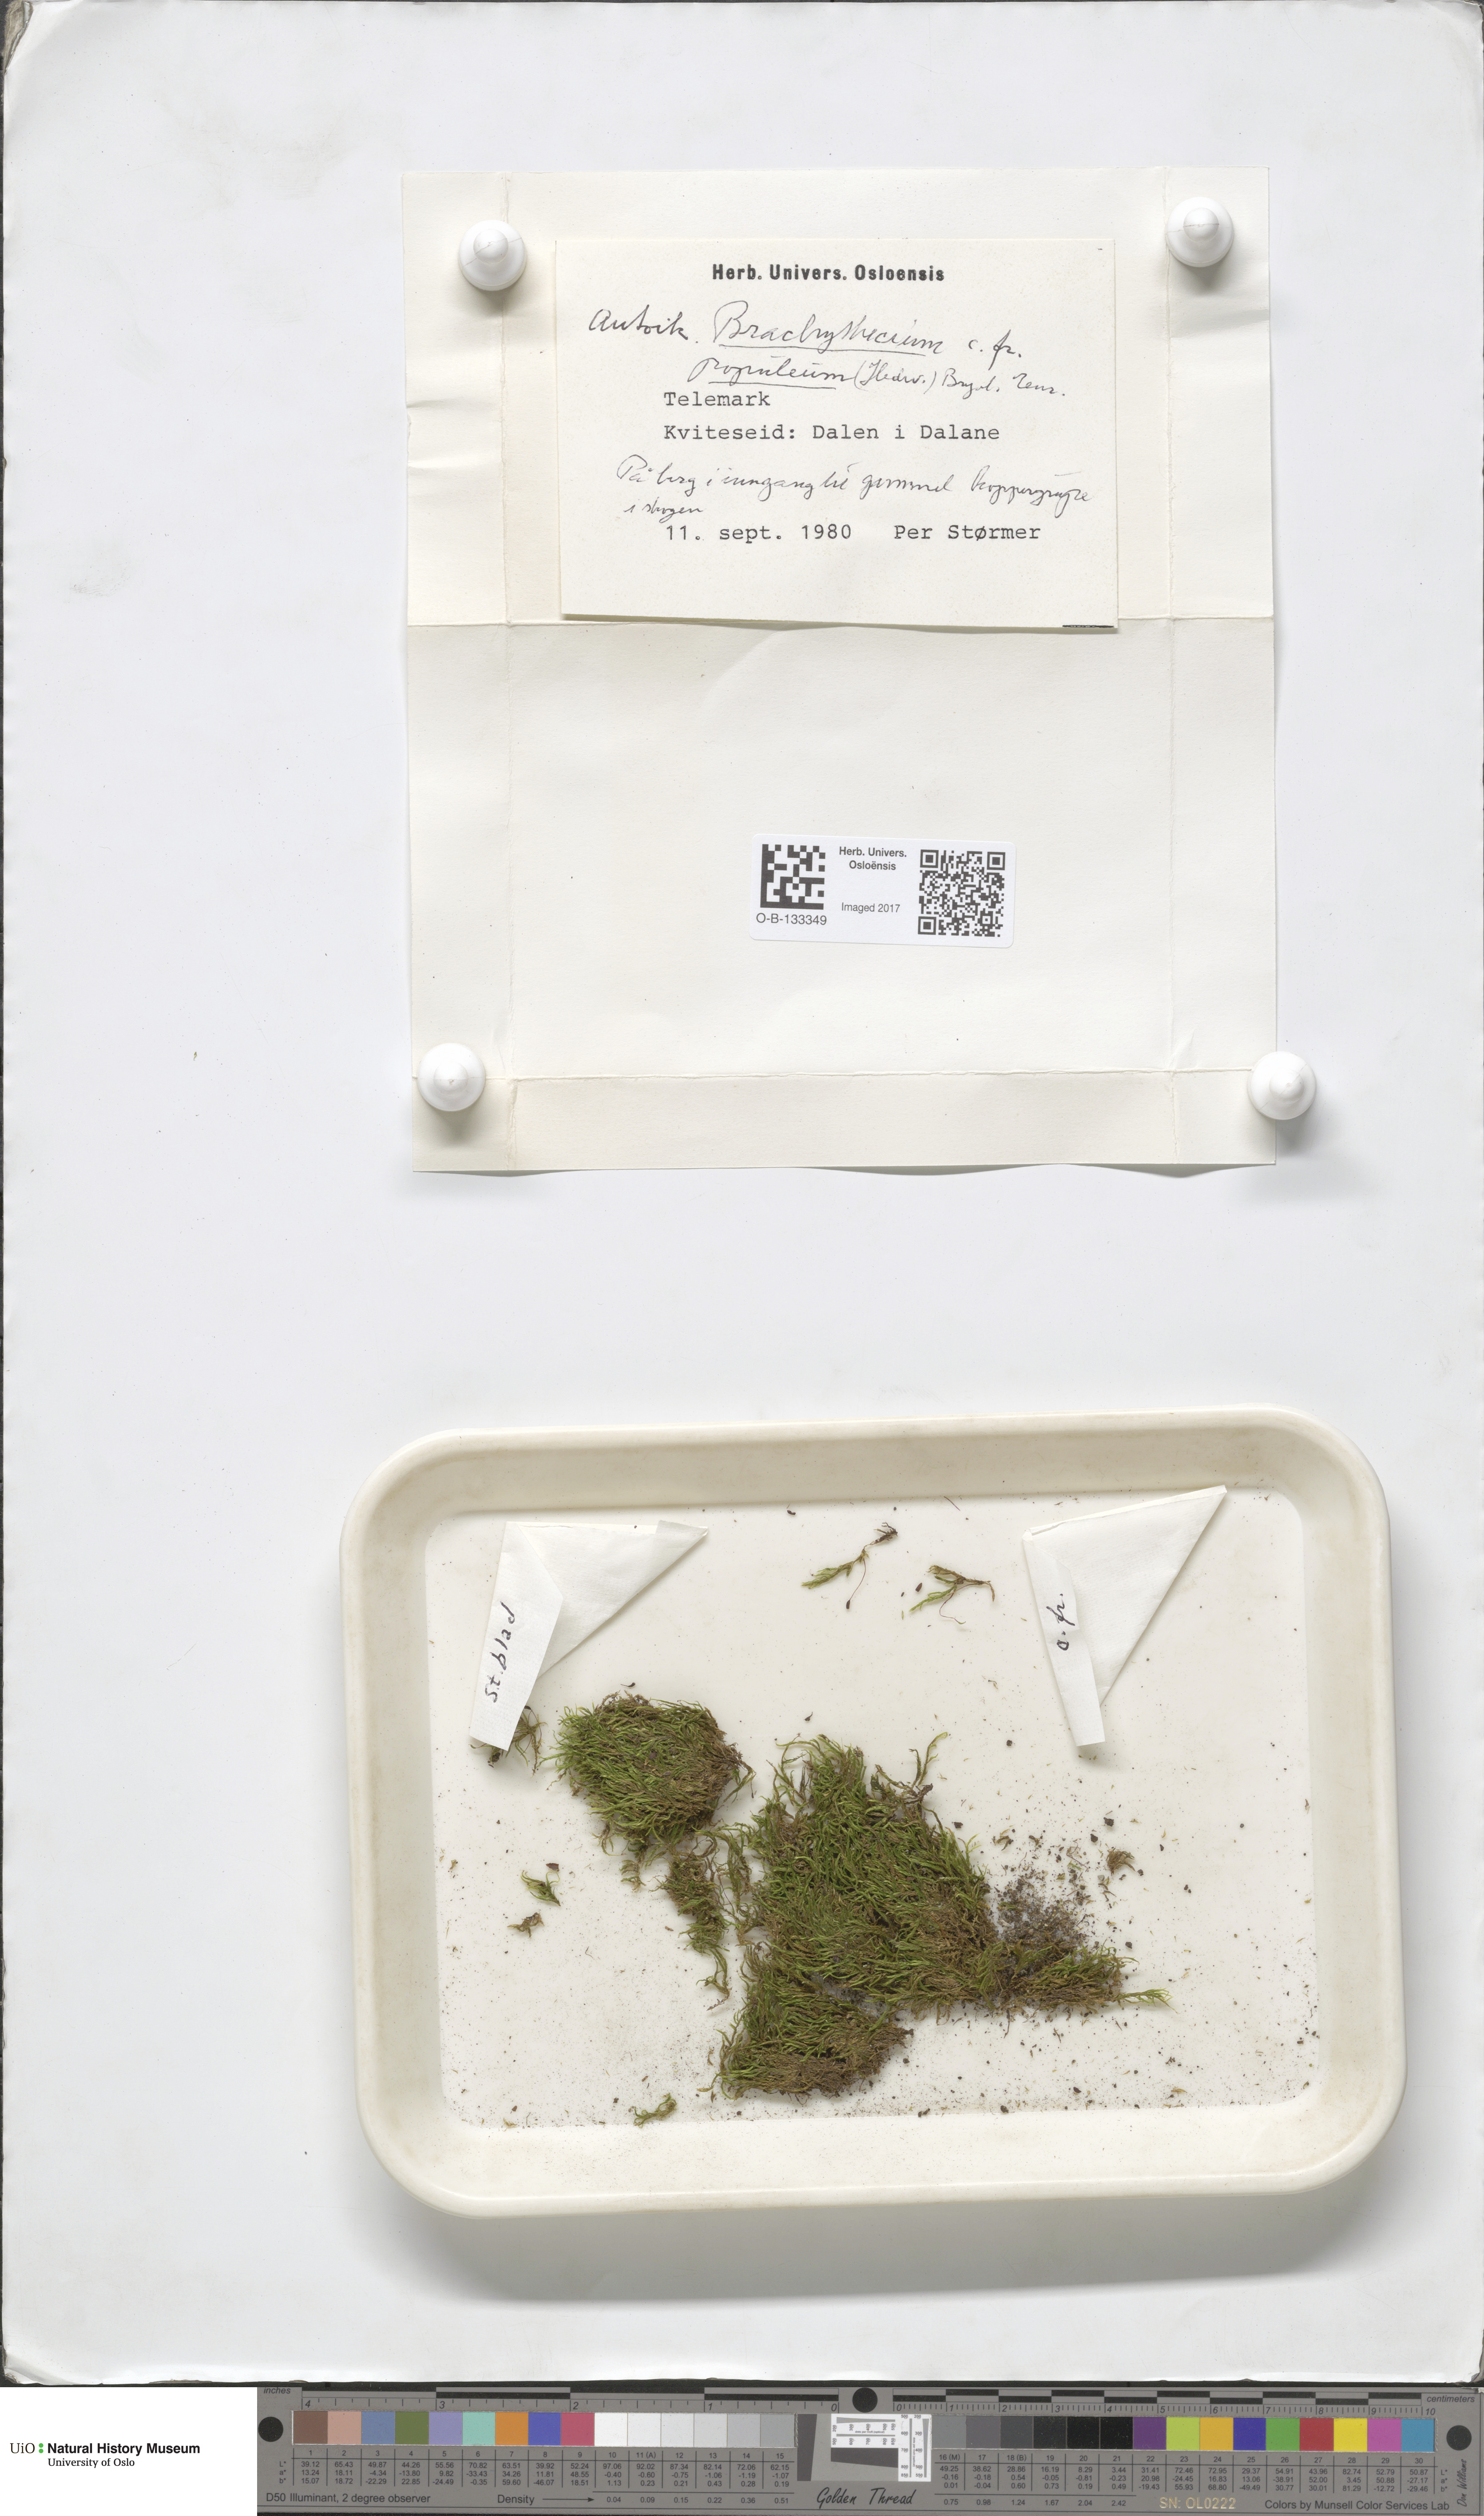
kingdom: Plantae
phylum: Bryophyta
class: Bryopsida
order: Hypnales
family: Brachytheciaceae
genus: Sciuro-hypnum
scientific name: Sciuro-hypnum plumosum
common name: Rusty feather-moss
